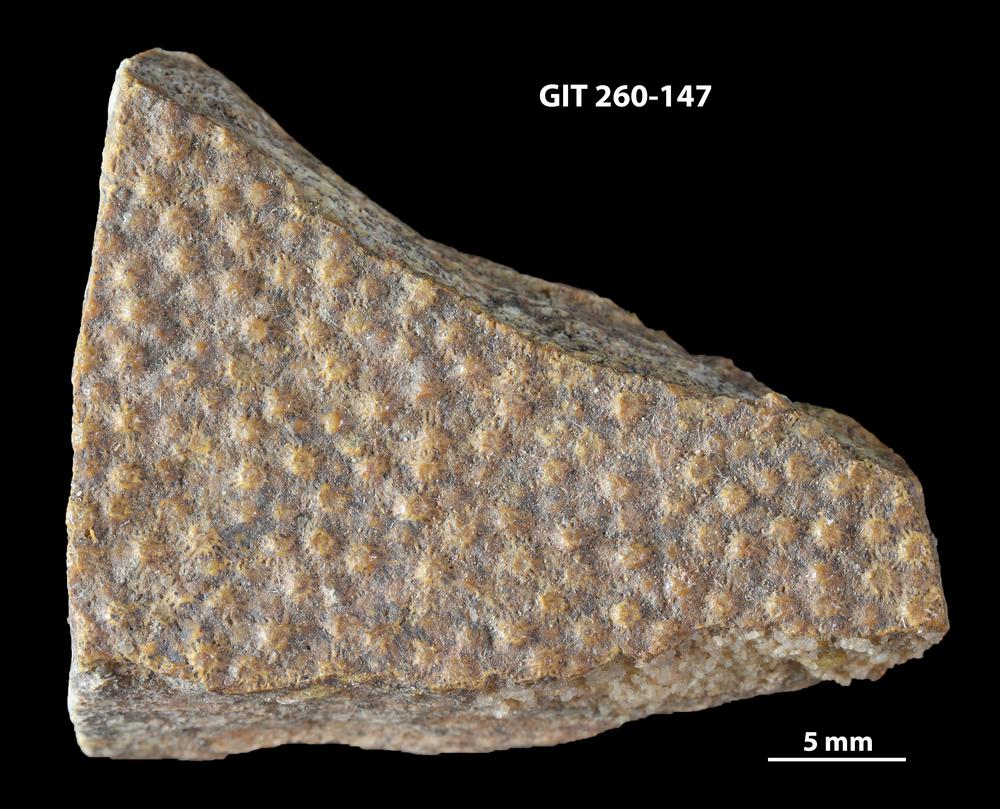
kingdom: Animalia
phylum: Chordata
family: Homostiidae
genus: Homostius
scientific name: Homostius
